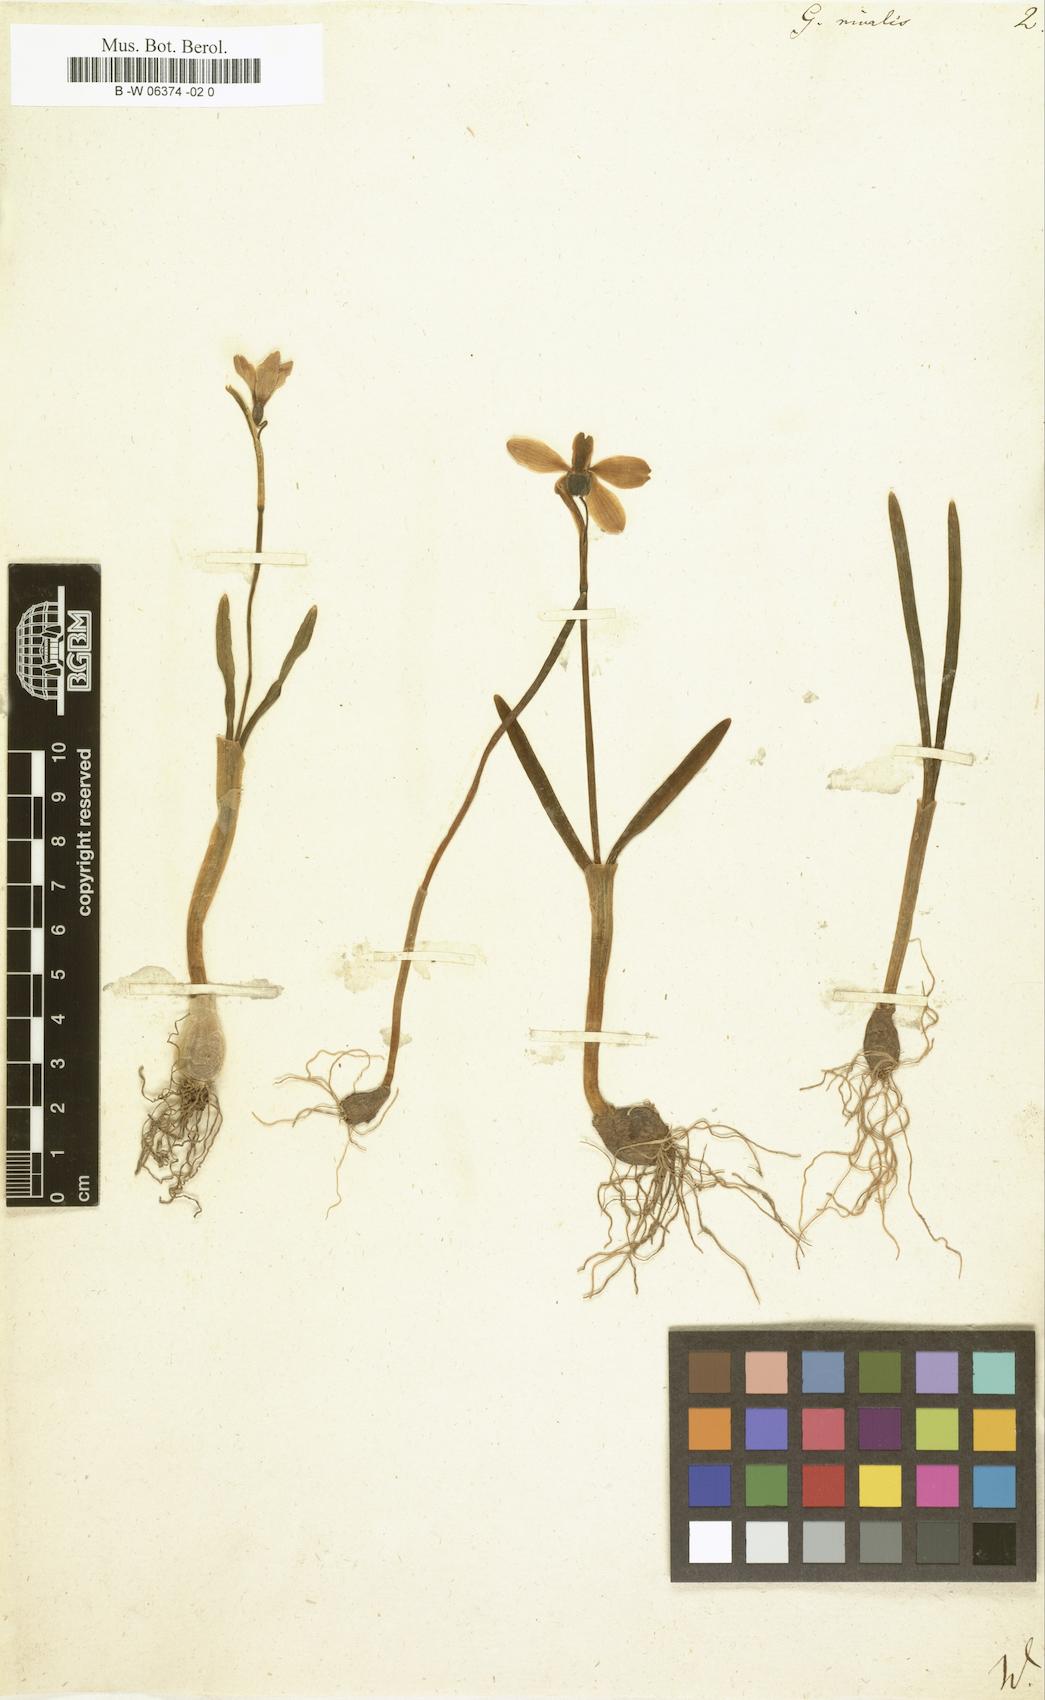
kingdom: Plantae
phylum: Tracheophyta
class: Liliopsida
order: Asparagales
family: Amaryllidaceae
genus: Galanthus
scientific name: Galanthus nivalis
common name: Snowdrop
